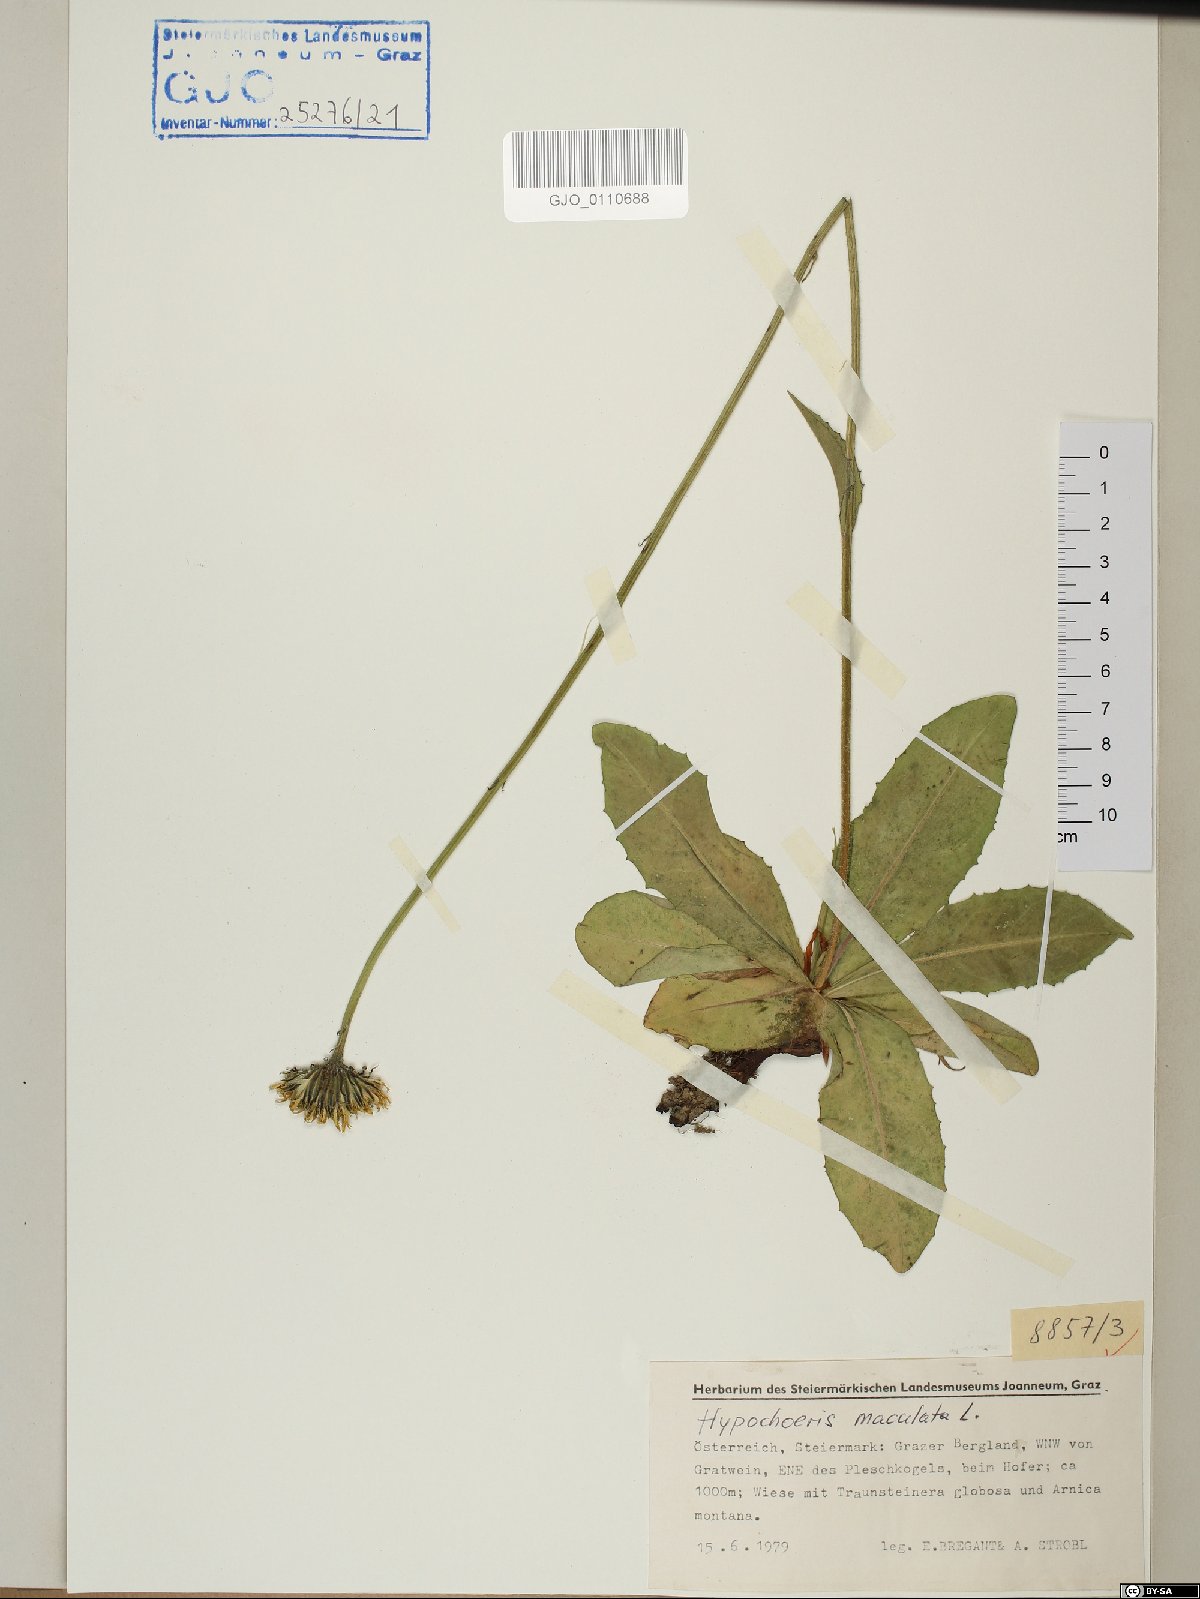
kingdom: Plantae
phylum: Tracheophyta
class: Magnoliopsida
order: Asterales
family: Asteraceae
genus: Trommsdorffia
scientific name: Trommsdorffia maculata
